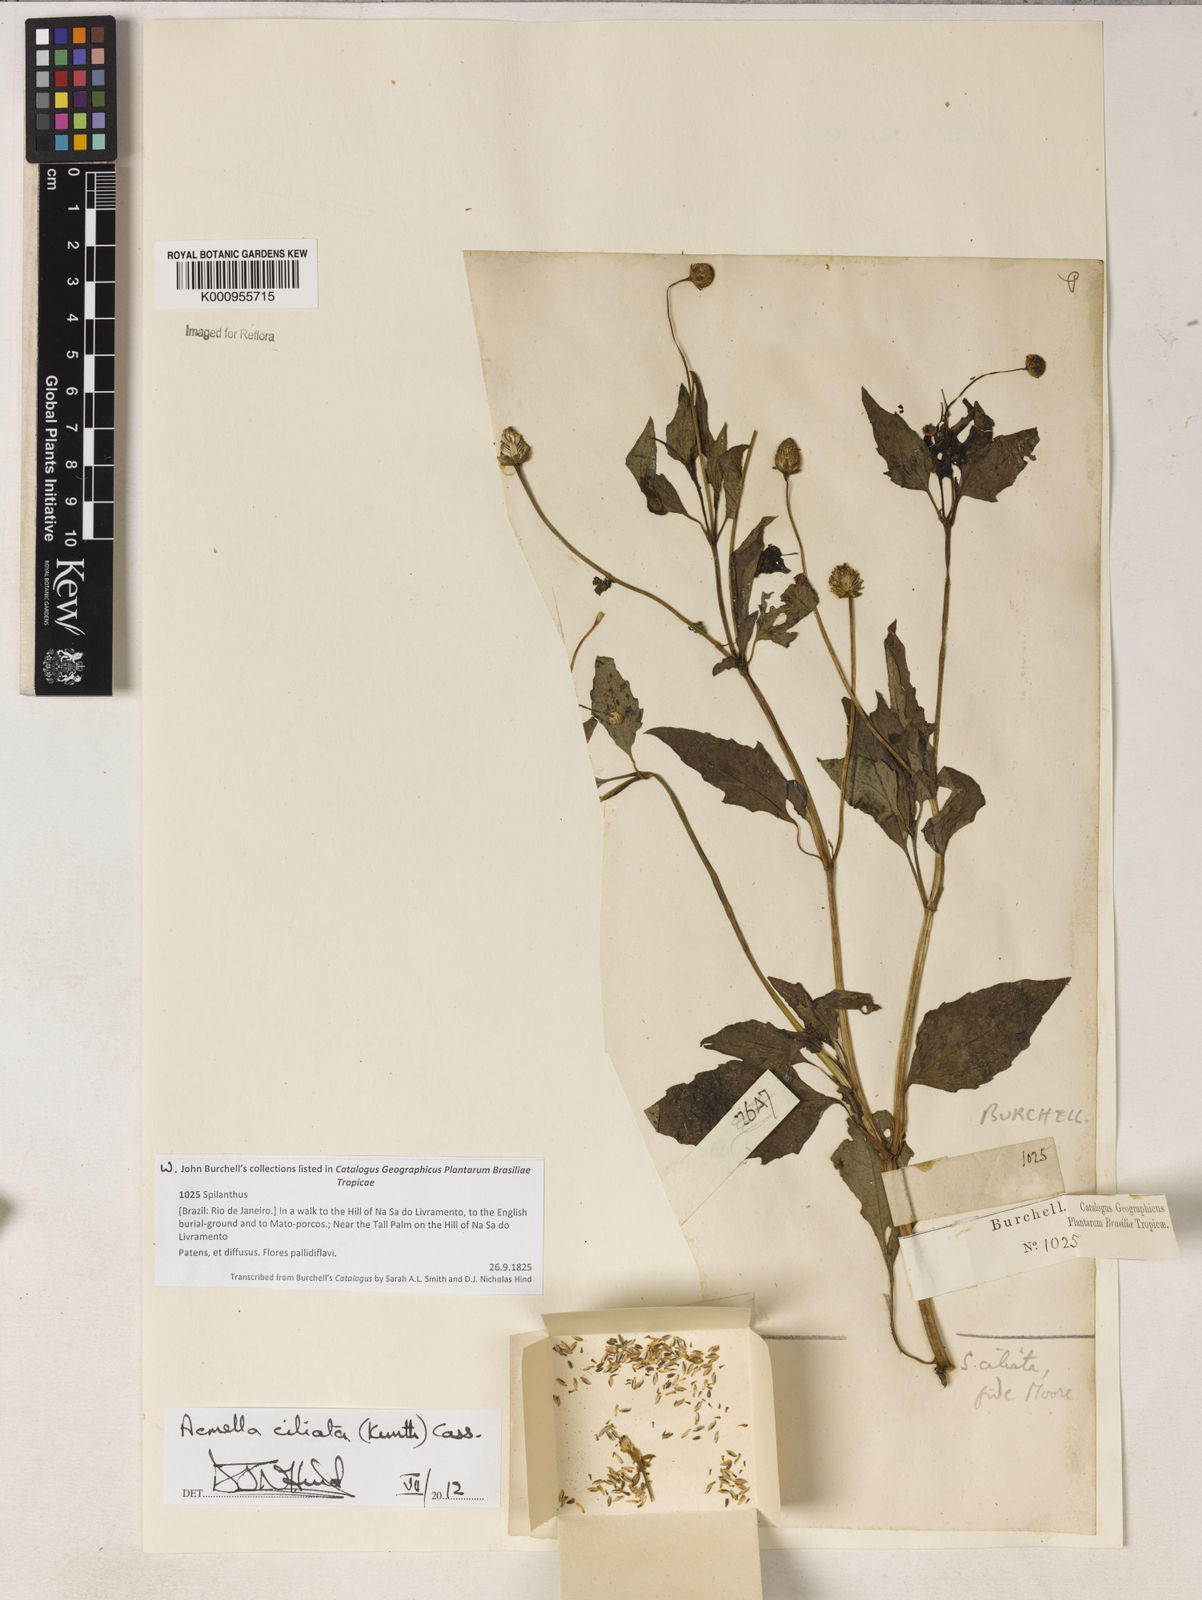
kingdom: Plantae
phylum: Tracheophyta
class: Magnoliopsida
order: Asterales
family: Asteraceae
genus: Acmella
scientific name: Acmella ciliata
